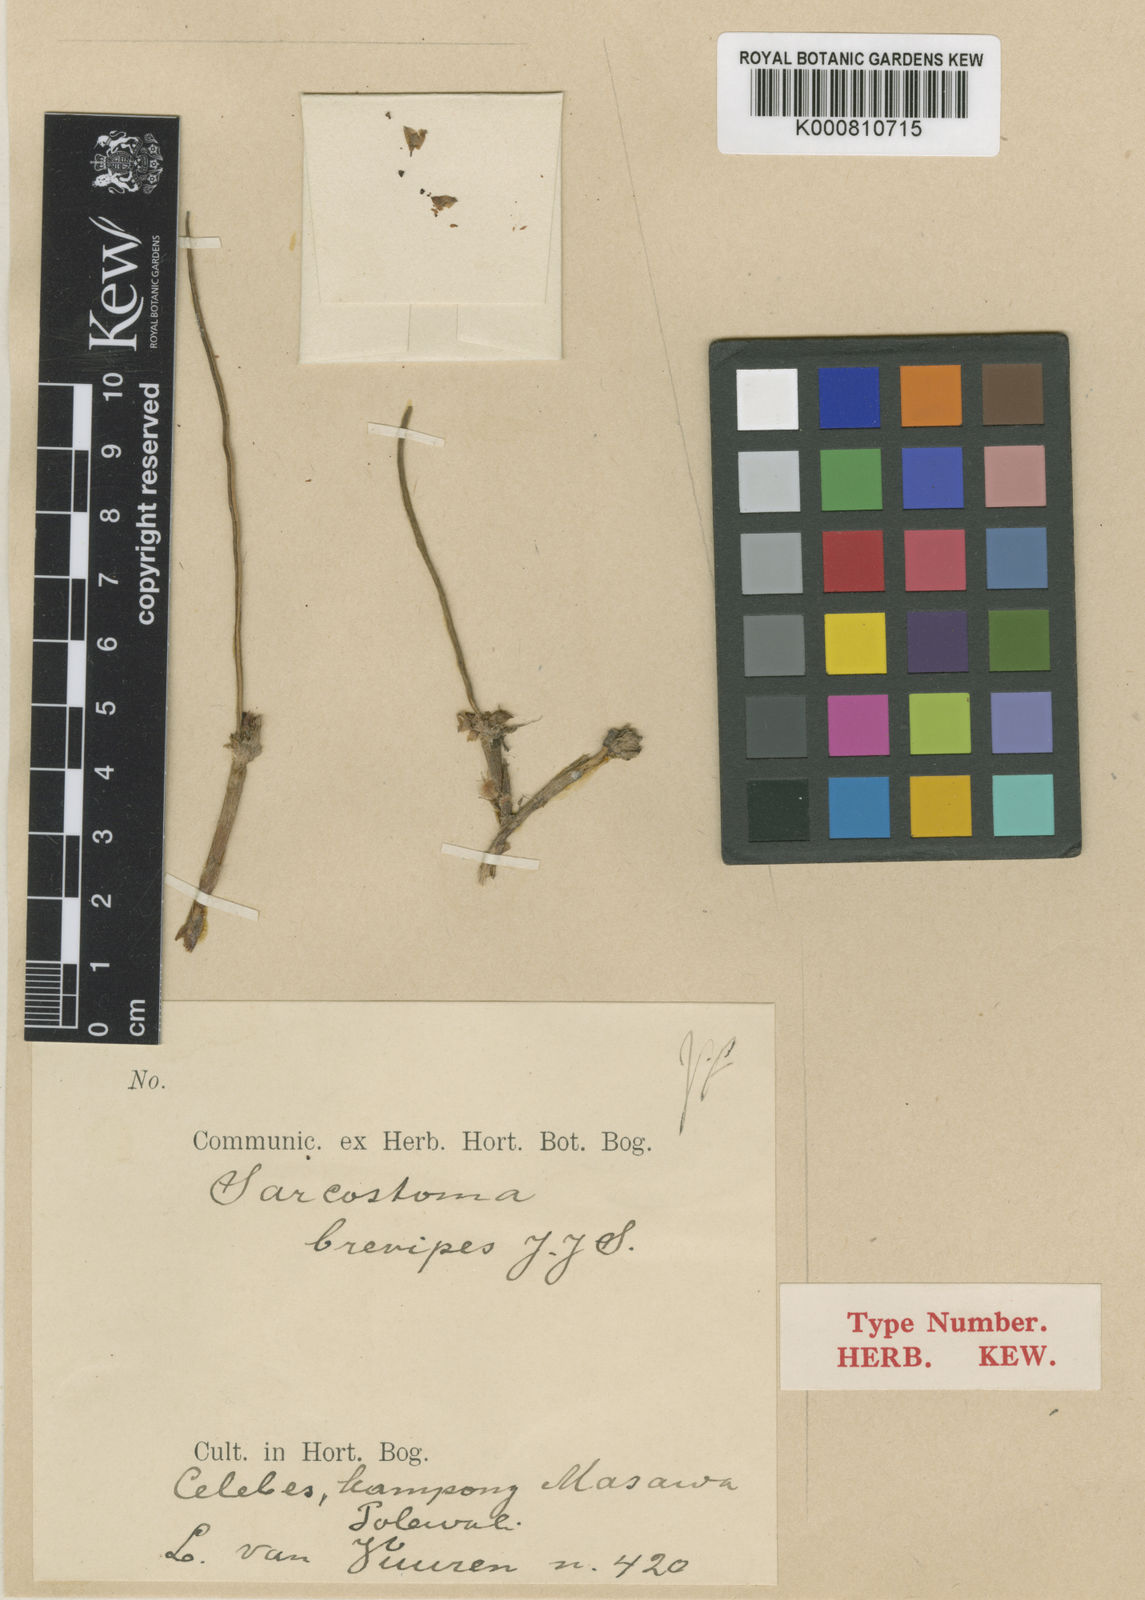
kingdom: Plantae
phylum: Tracheophyta
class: Liliopsida
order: Asparagales
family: Orchidaceae
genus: Ceratostylis
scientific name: Ceratostylis subapoda
